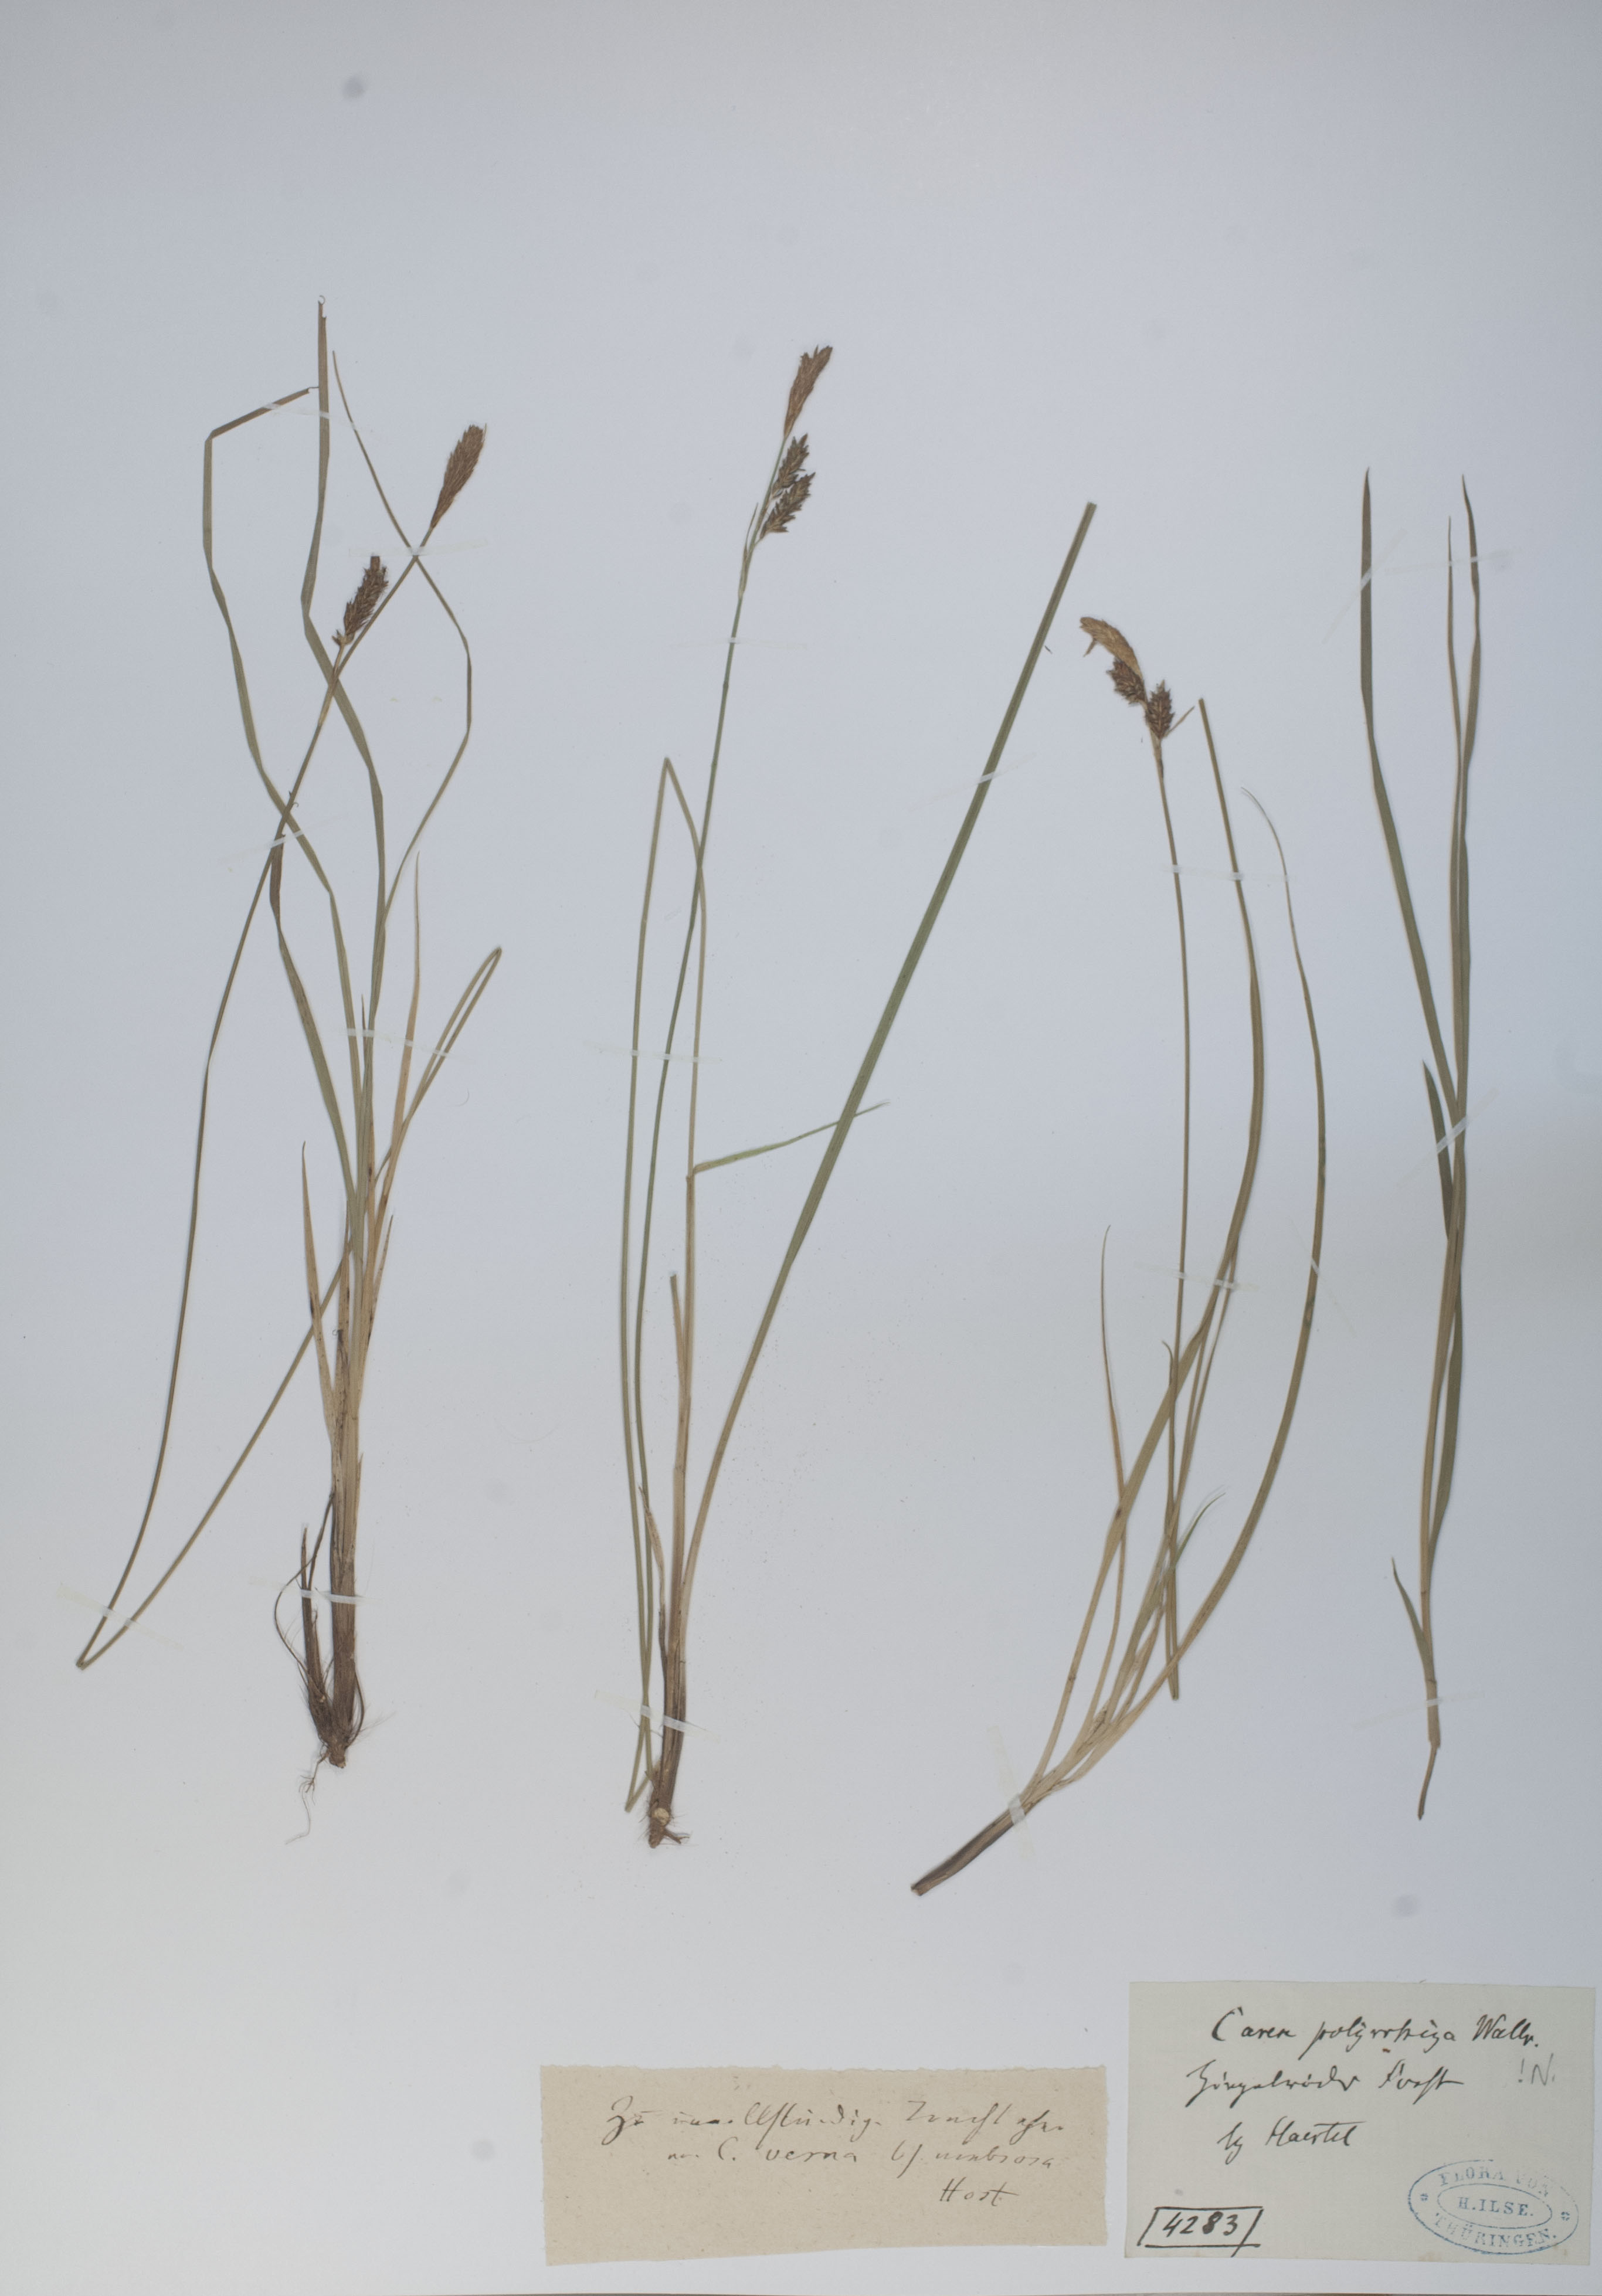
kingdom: Plantae
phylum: Tracheophyta
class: Liliopsida
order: Poales
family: Cyperaceae
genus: Carex
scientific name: Carex umbrosa
